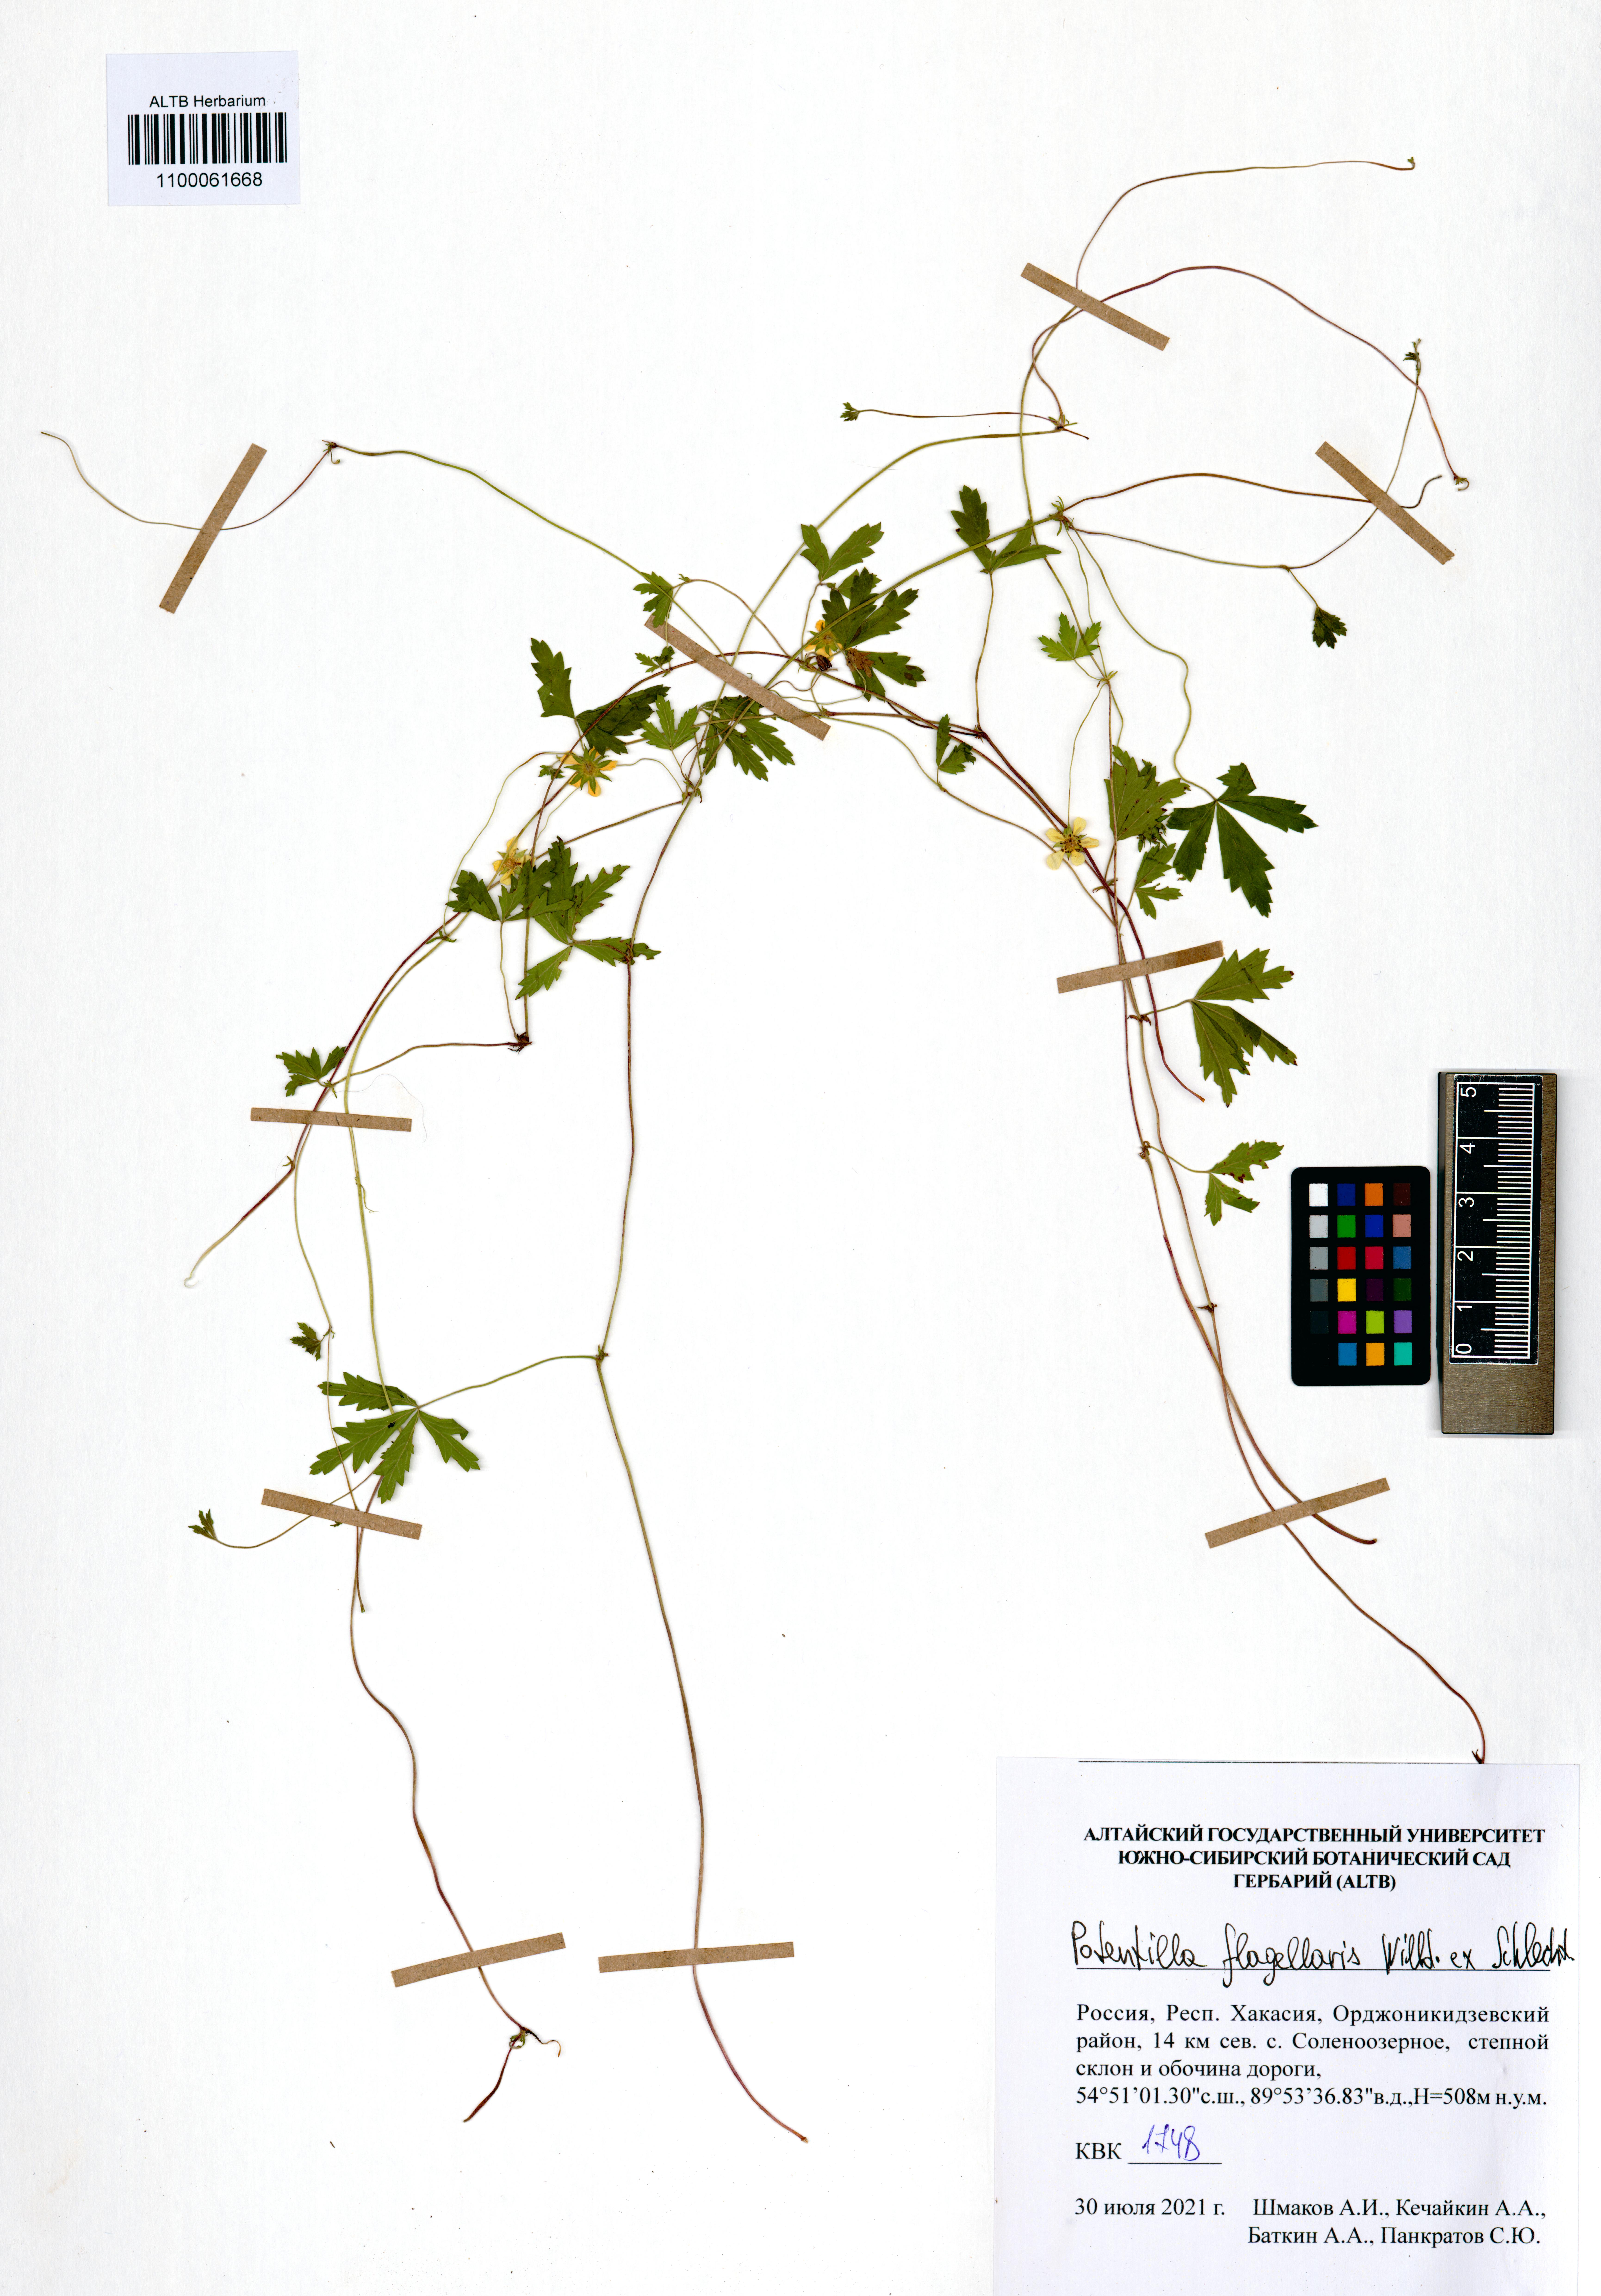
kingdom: Plantae
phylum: Tracheophyta
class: Magnoliopsida
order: Rosales
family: Rosaceae
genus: Potentilla
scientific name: Potentilla flagellaris
